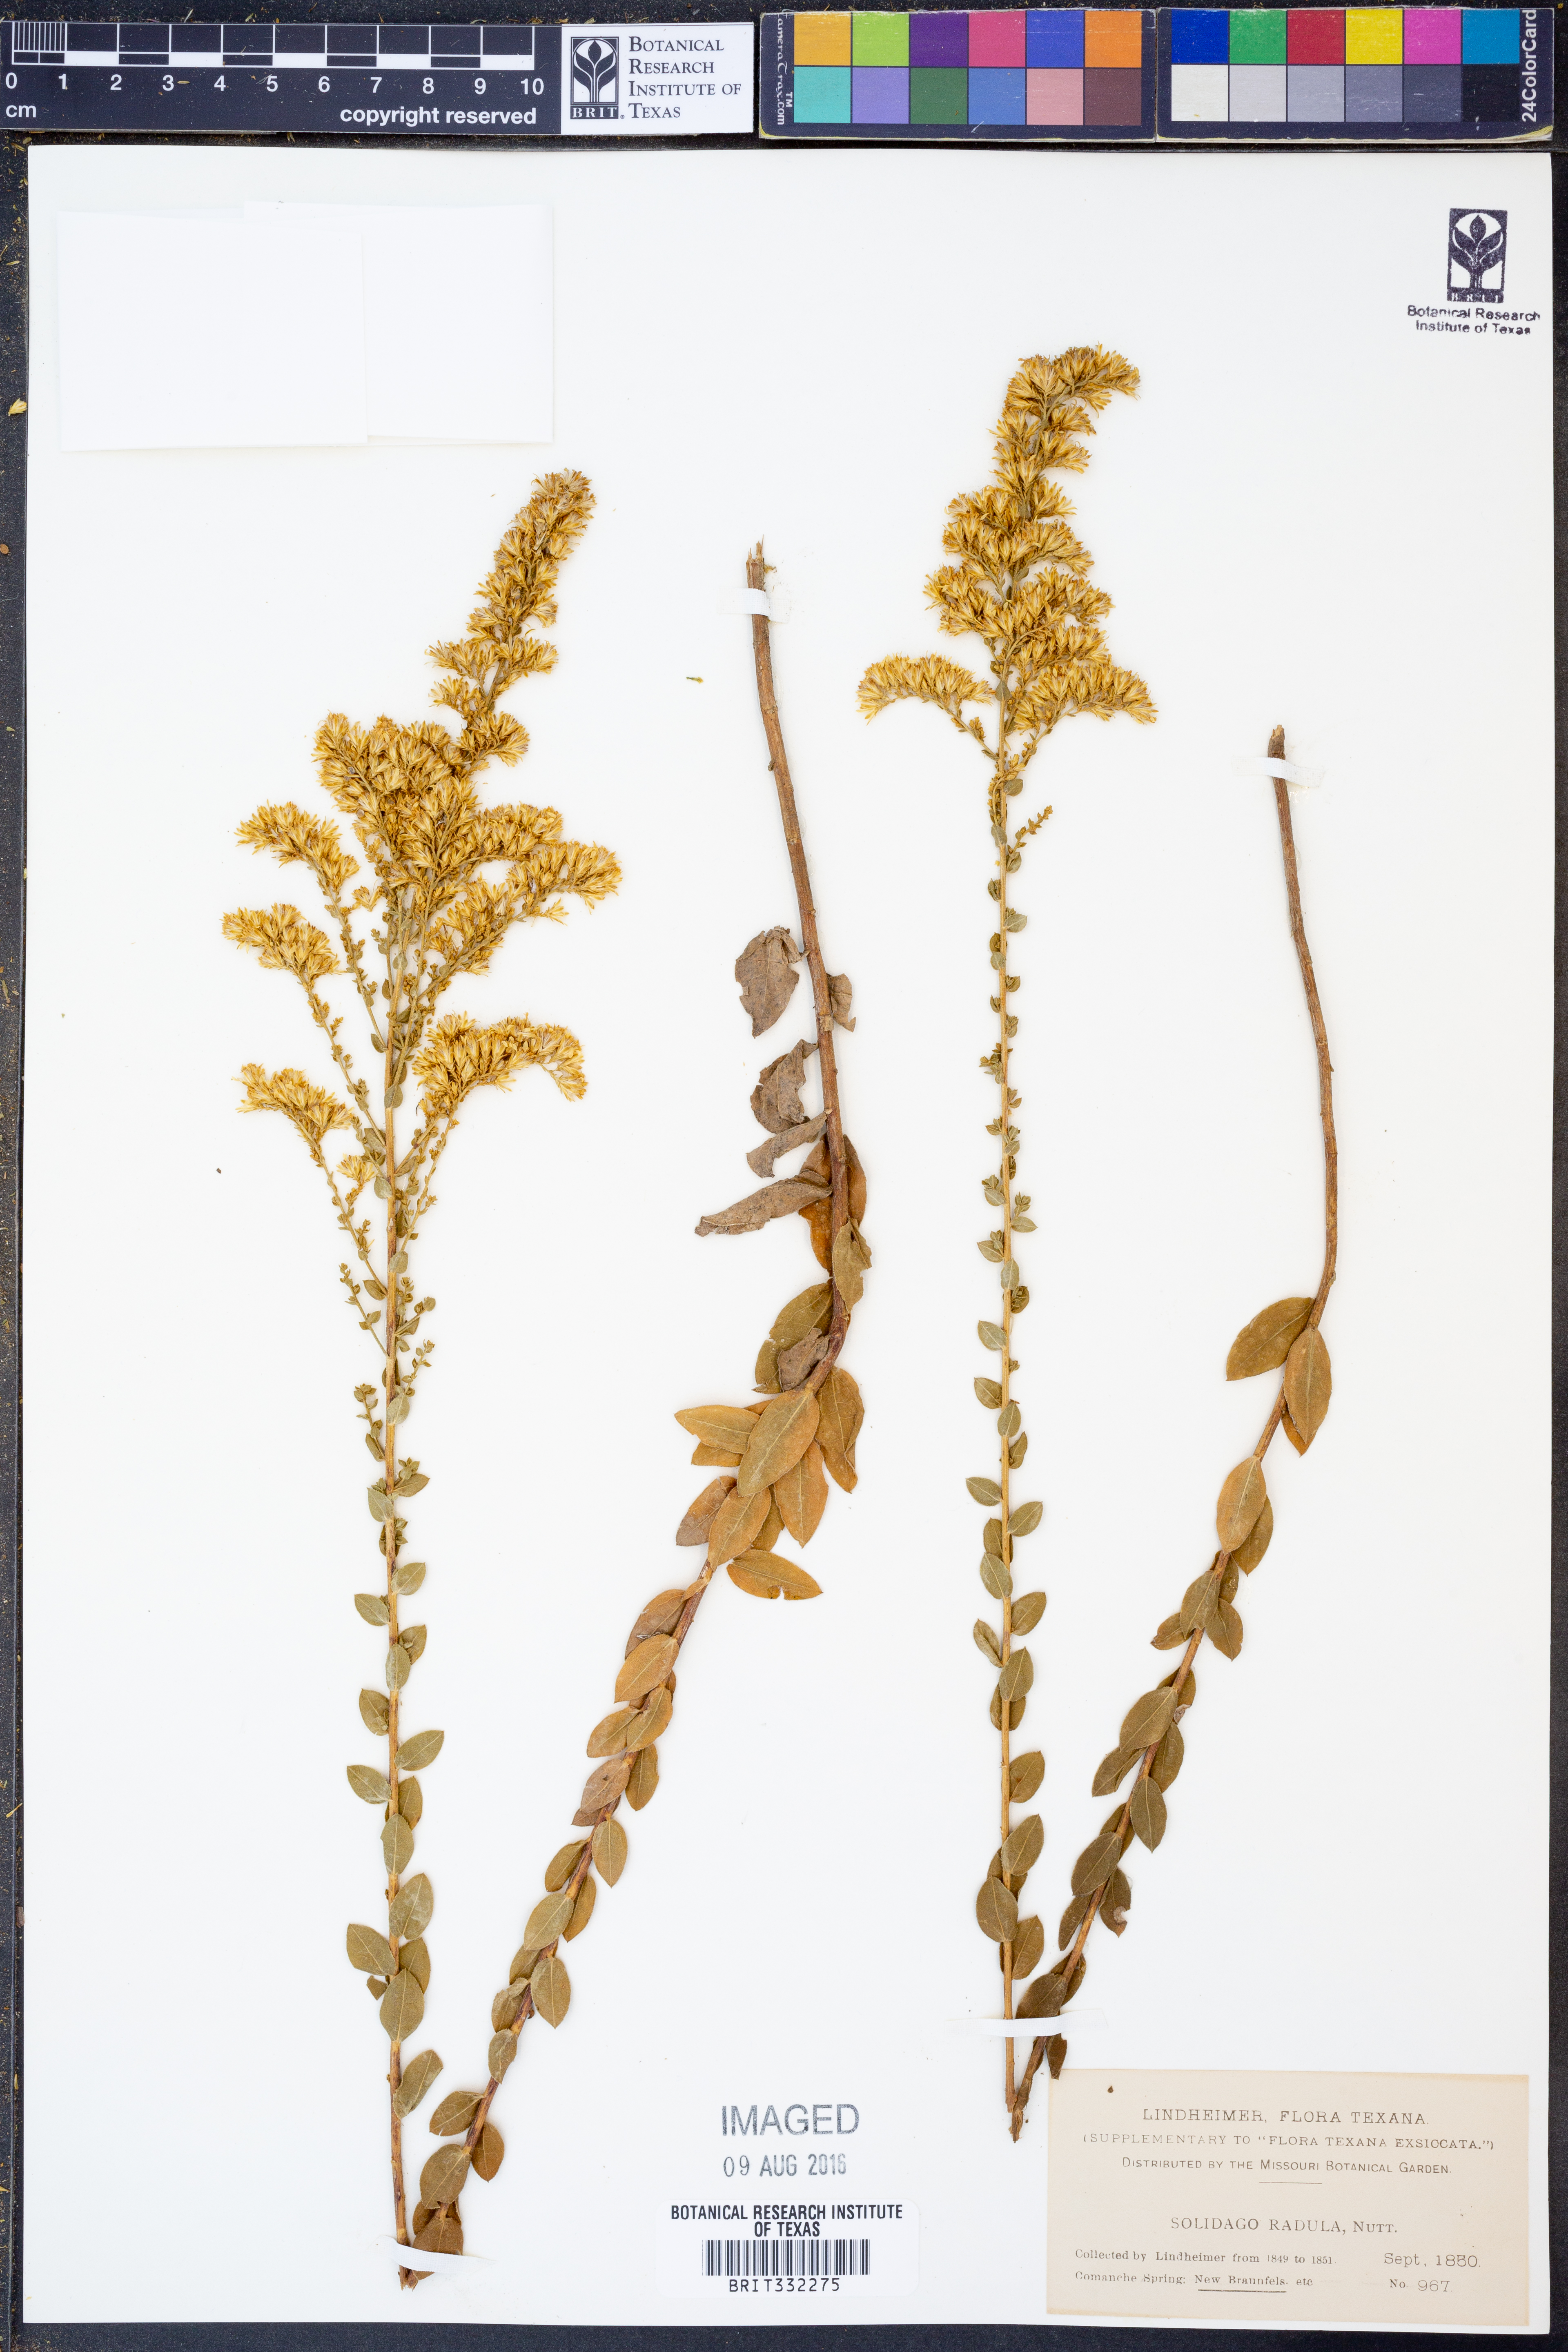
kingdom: Plantae
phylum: Tracheophyta
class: Magnoliopsida
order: Asterales
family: Asteraceae
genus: Solidago
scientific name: Solidago radula
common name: Western rough goldenrod
